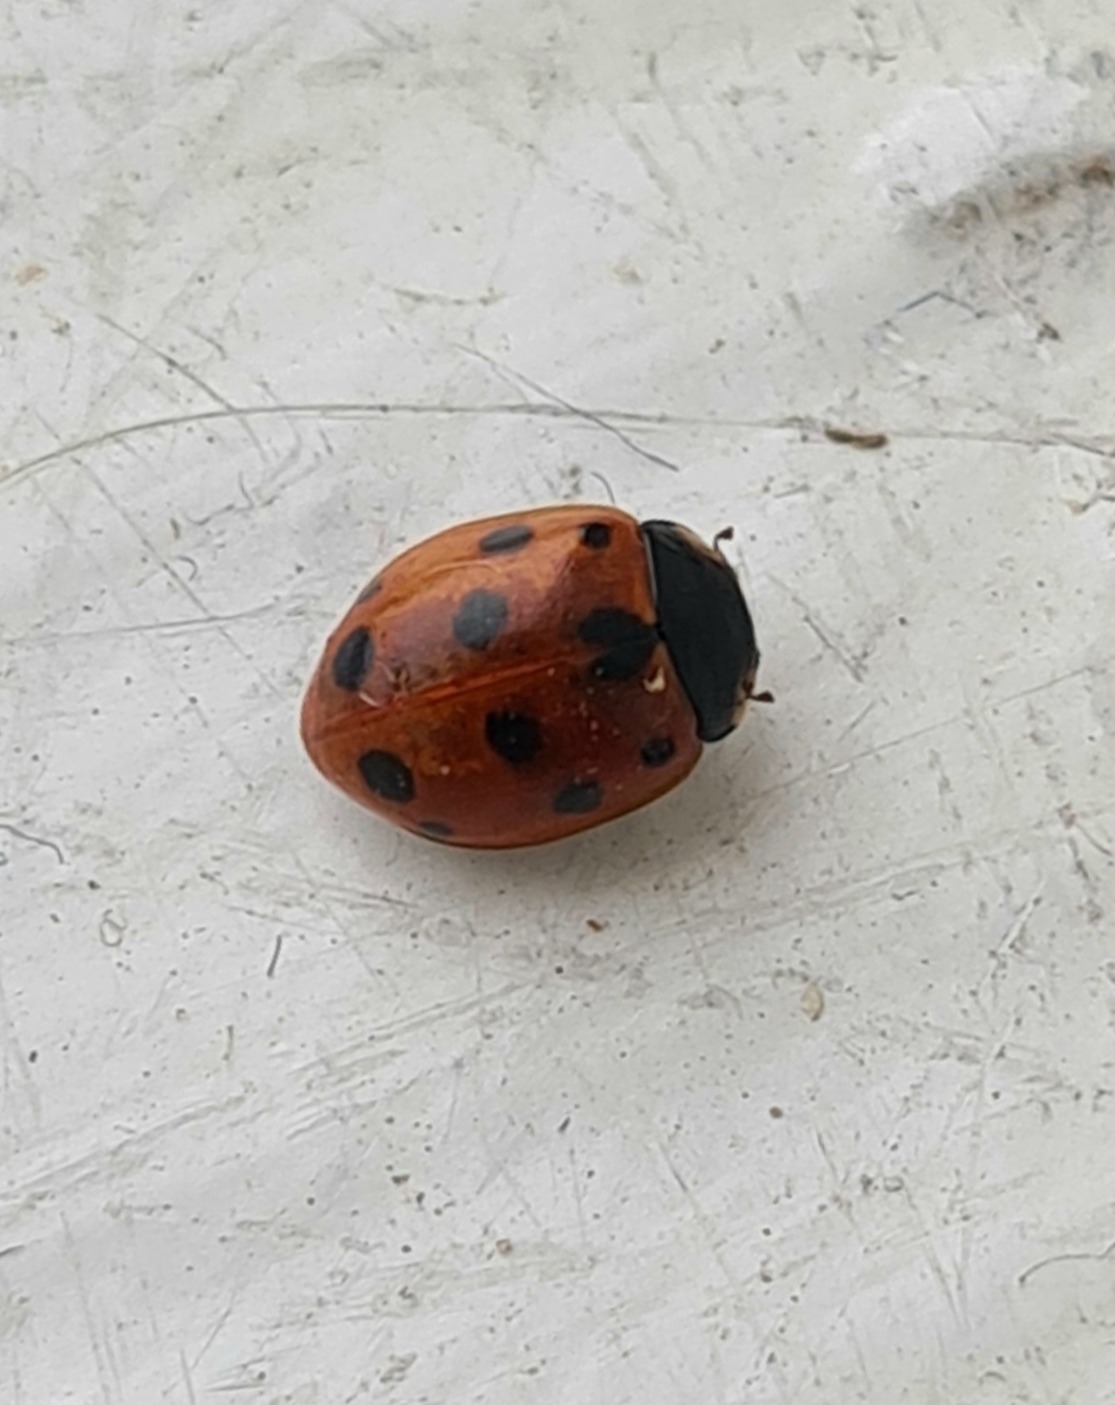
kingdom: Animalia
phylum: Arthropoda
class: Insecta
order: Coleoptera
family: Coccinellidae
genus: Coccinella
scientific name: Coccinella undecimpunctata
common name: Elleveplettet mariehøne
